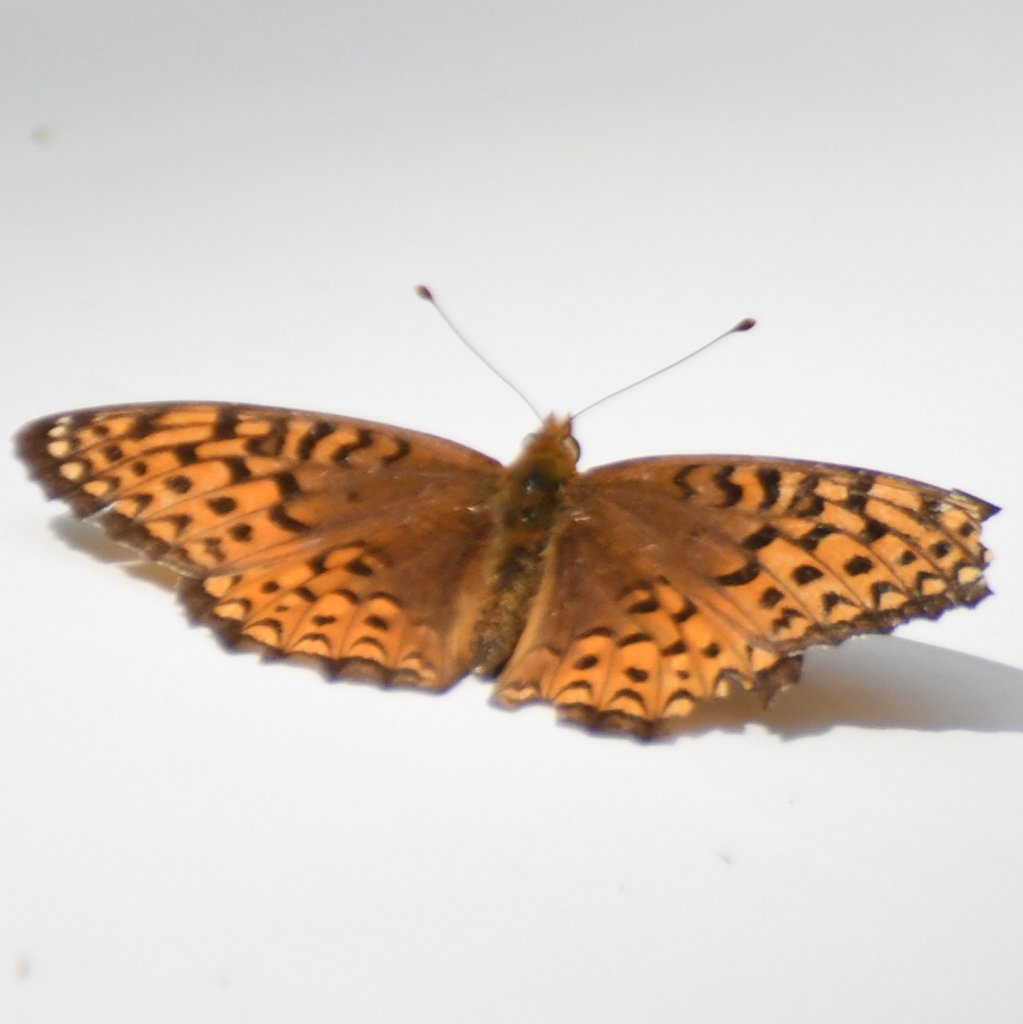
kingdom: Animalia
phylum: Arthropoda
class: Insecta
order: Lepidoptera
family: Nymphalidae
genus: Speyeria
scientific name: Speyeria
